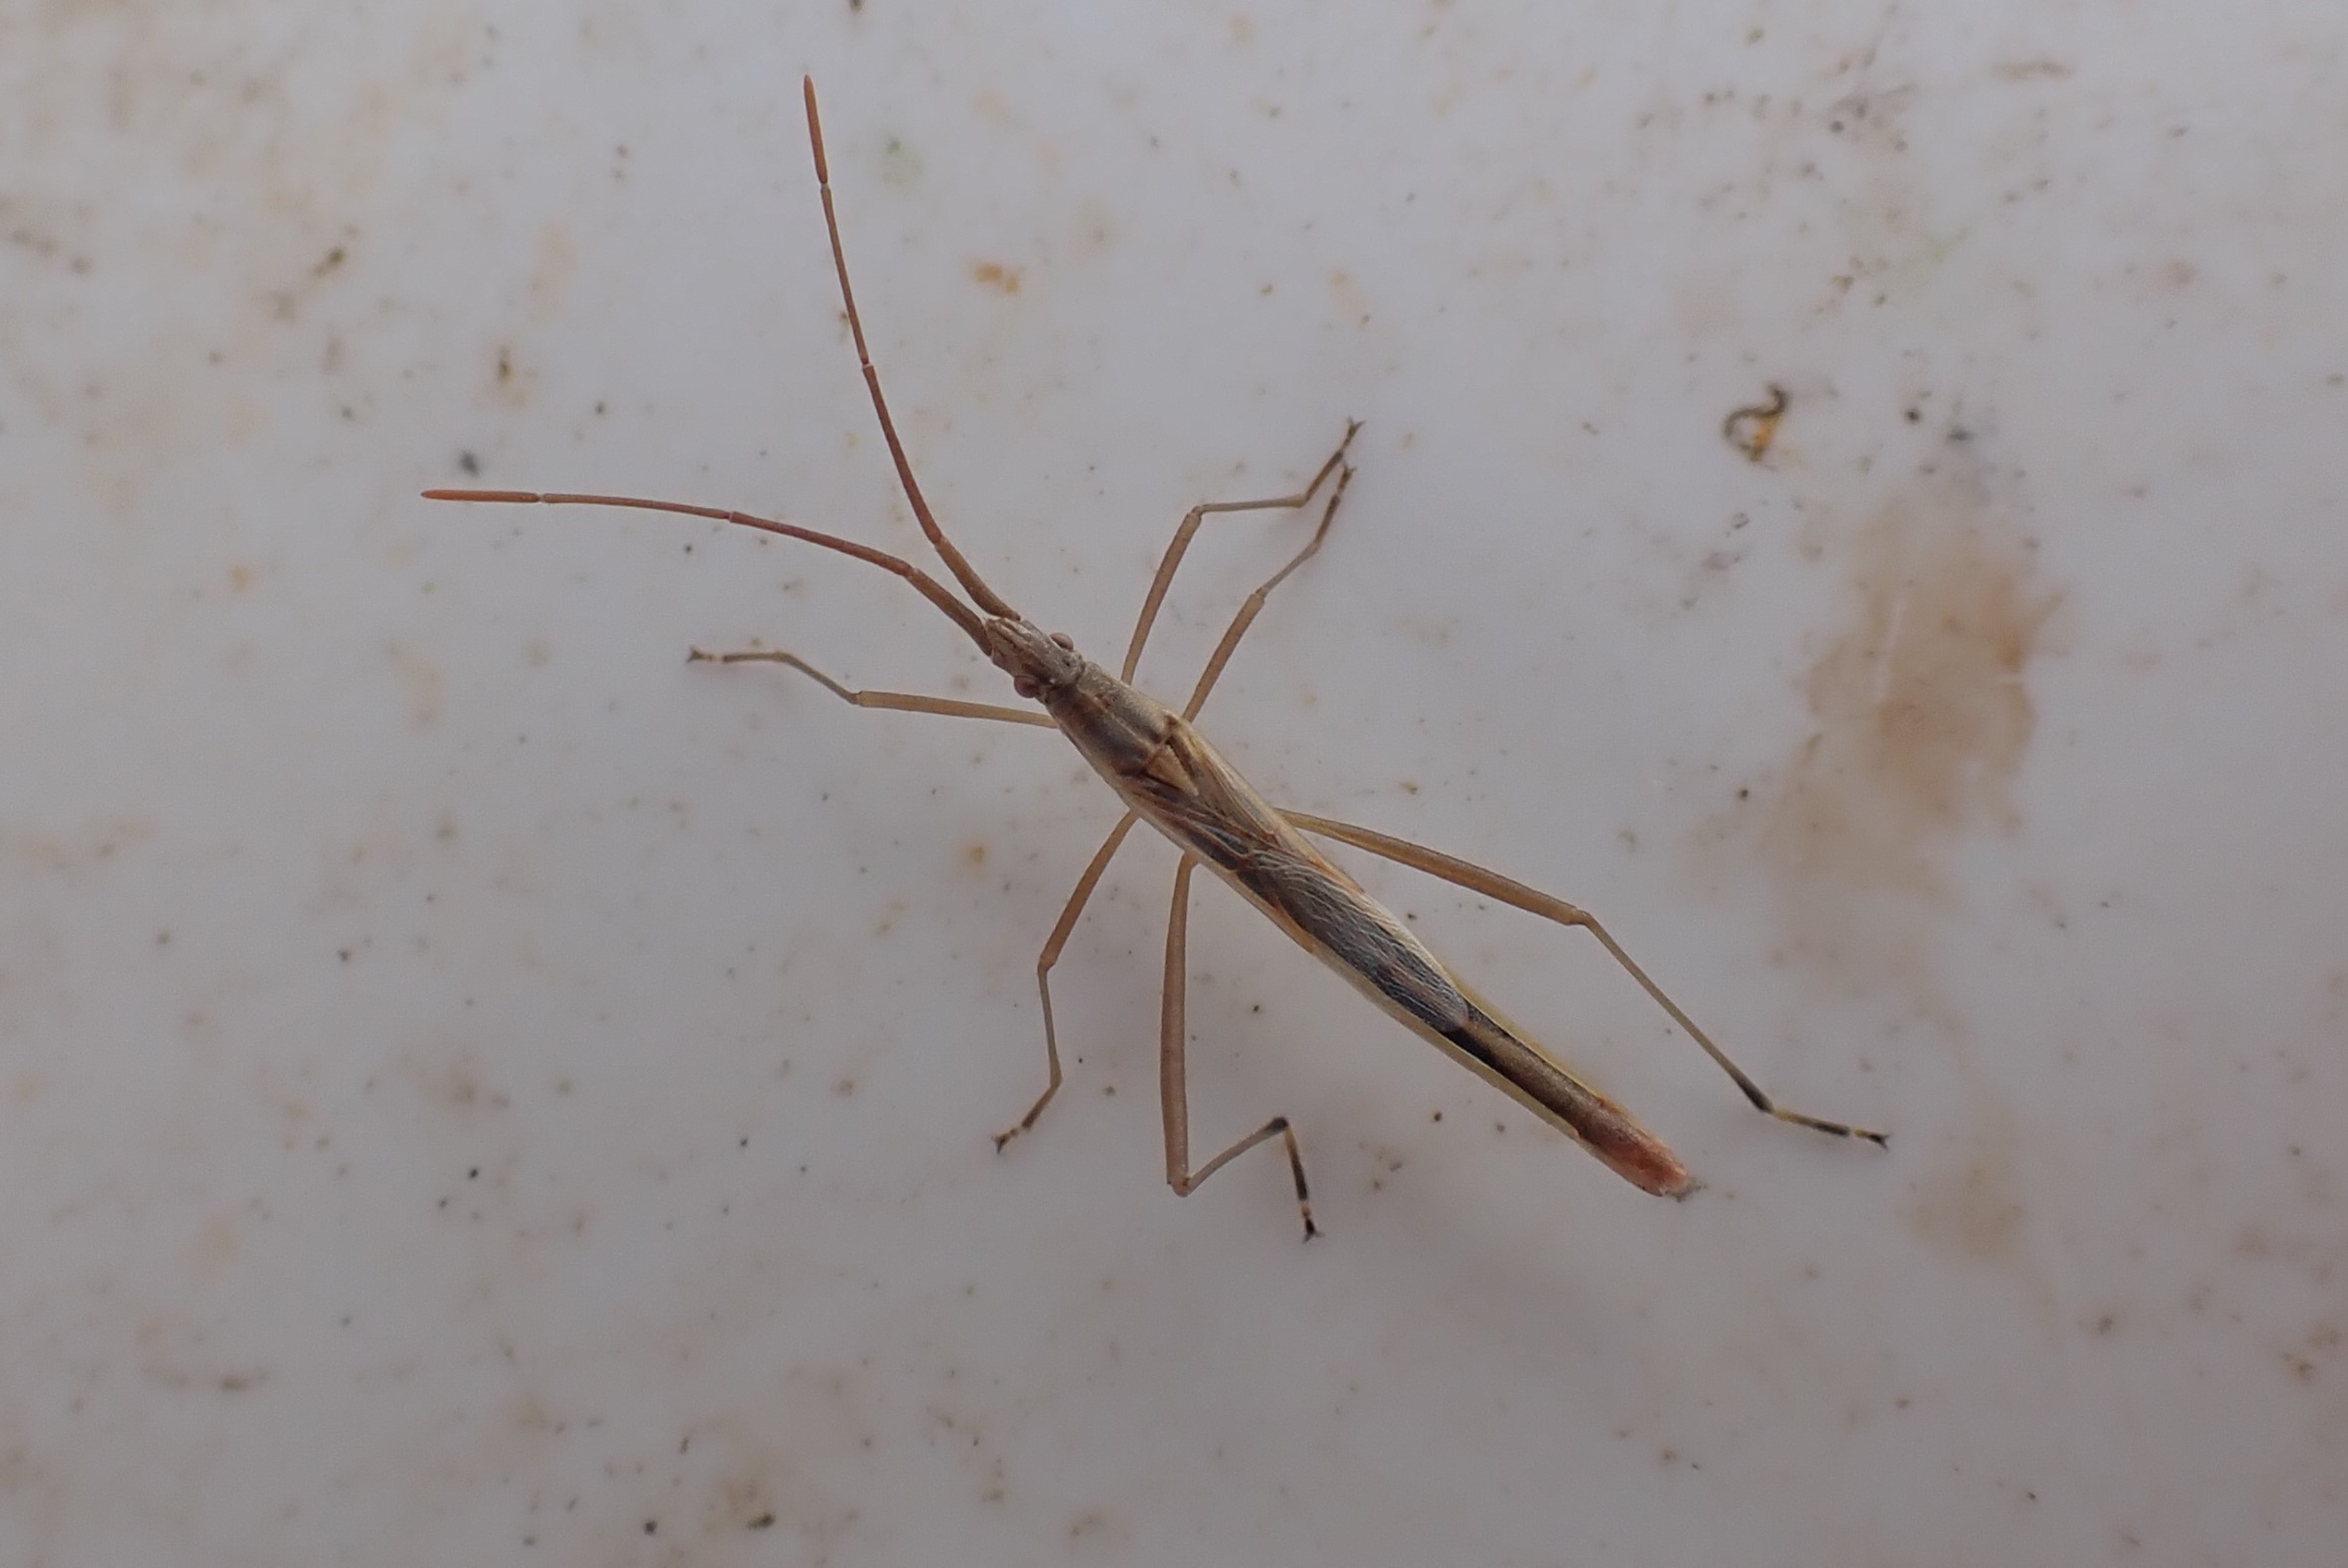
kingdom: Animalia
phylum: Arthropoda
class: Insecta
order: Hemiptera
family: Rhopalidae
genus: Chorosoma
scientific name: Chorosoma schillingii
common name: Lang stråtæge
